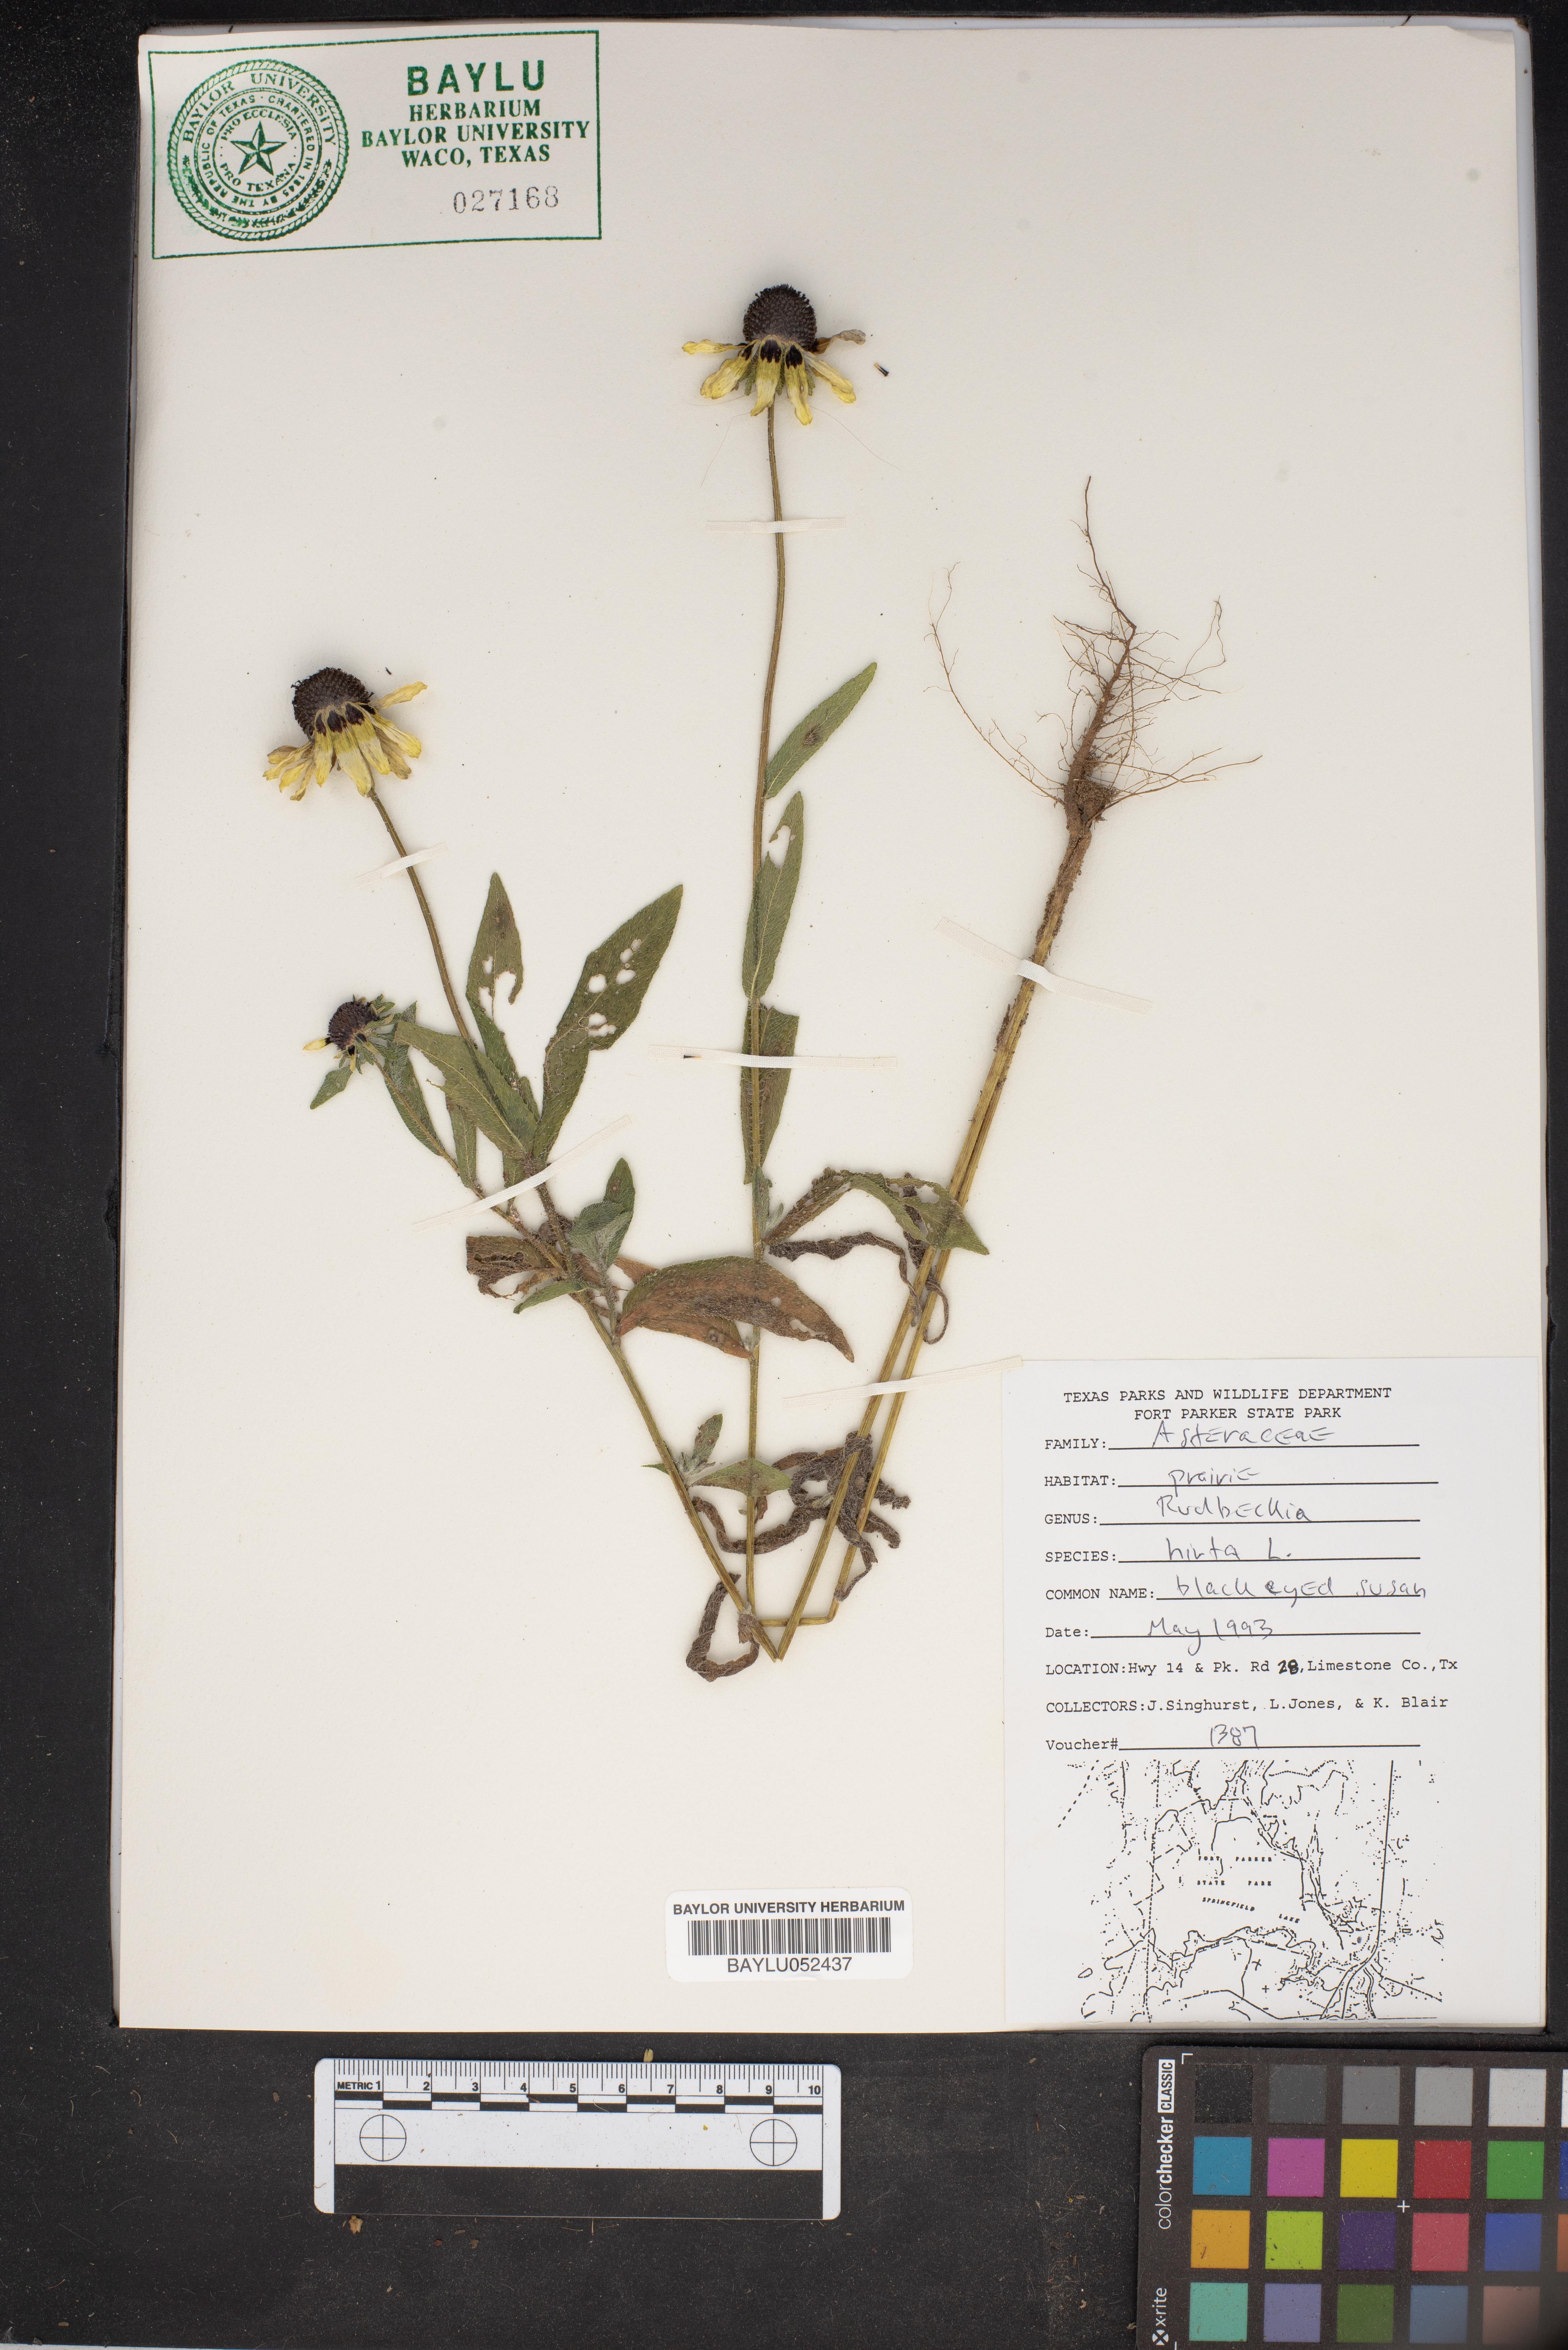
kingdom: Plantae
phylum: Tracheophyta
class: Magnoliopsida
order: Asterales
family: Asteraceae
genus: Rudbeckia
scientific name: Rudbeckia hirta
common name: Black-eyed-susan
